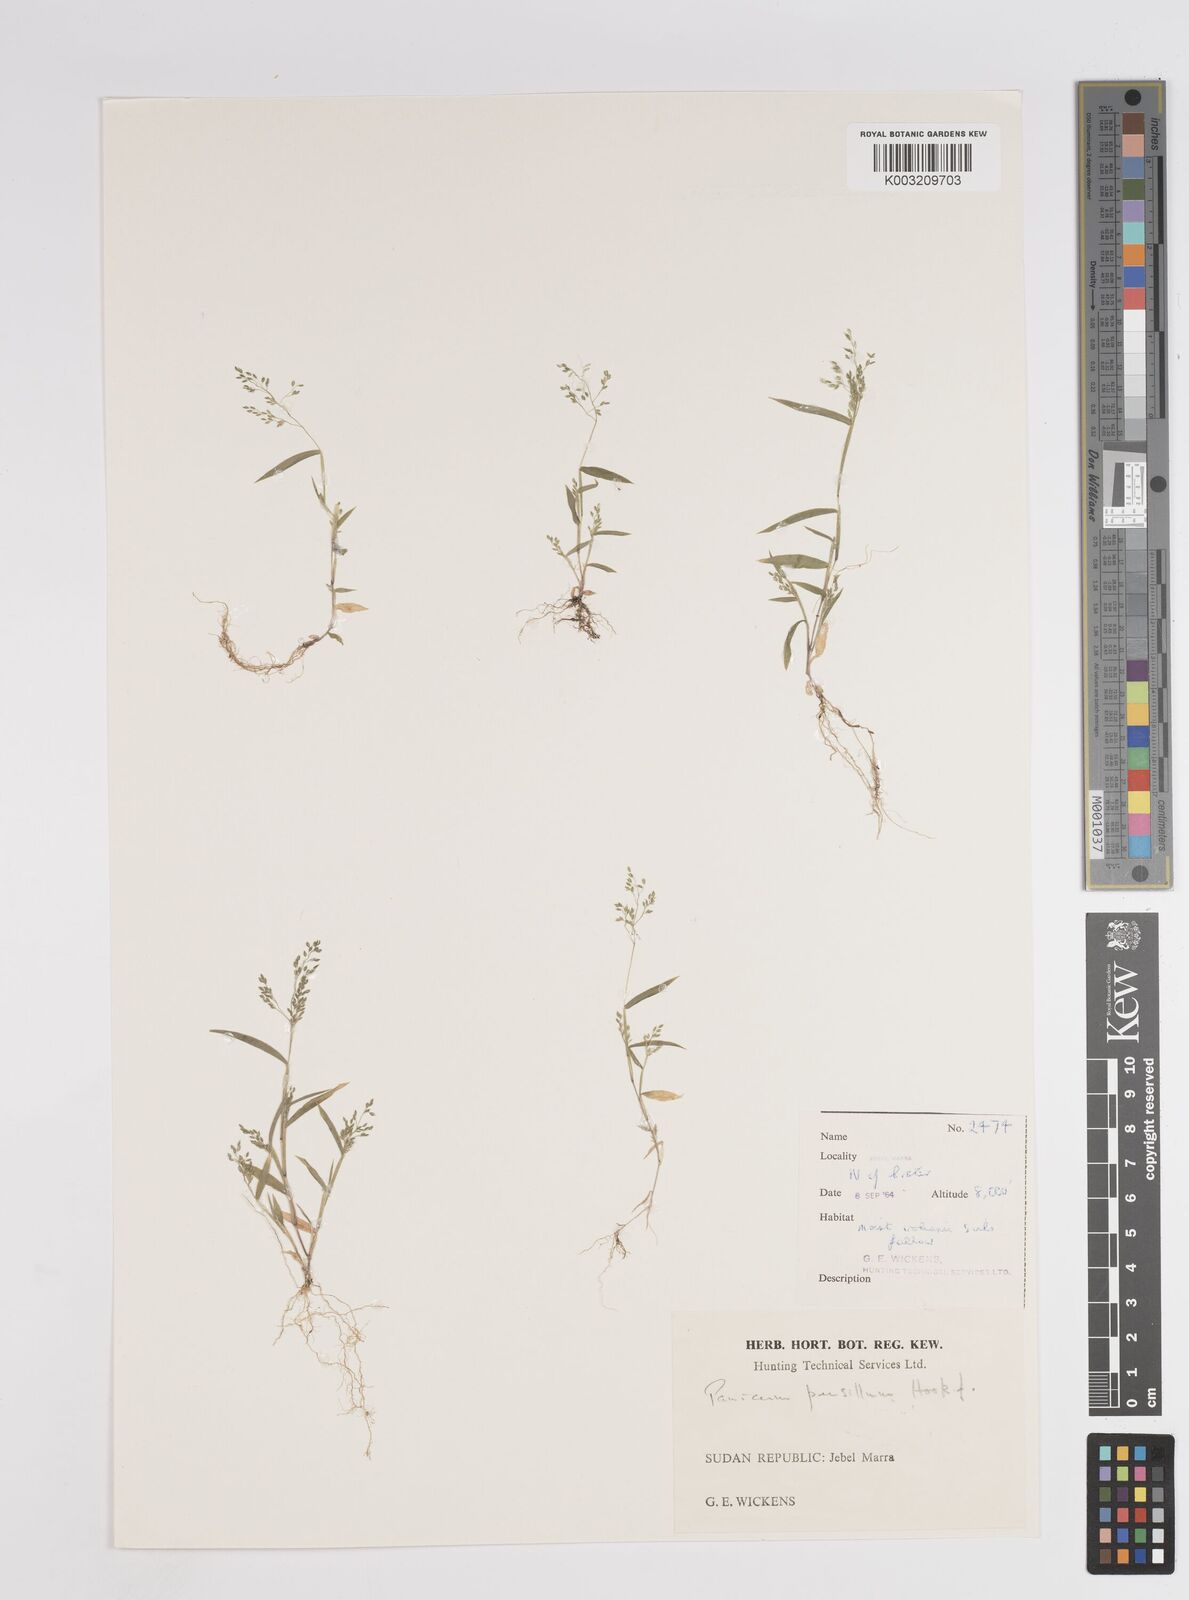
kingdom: Plantae
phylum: Tracheophyta
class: Liliopsida
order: Poales
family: Poaceae
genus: Panicum
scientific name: Panicum pusillum
